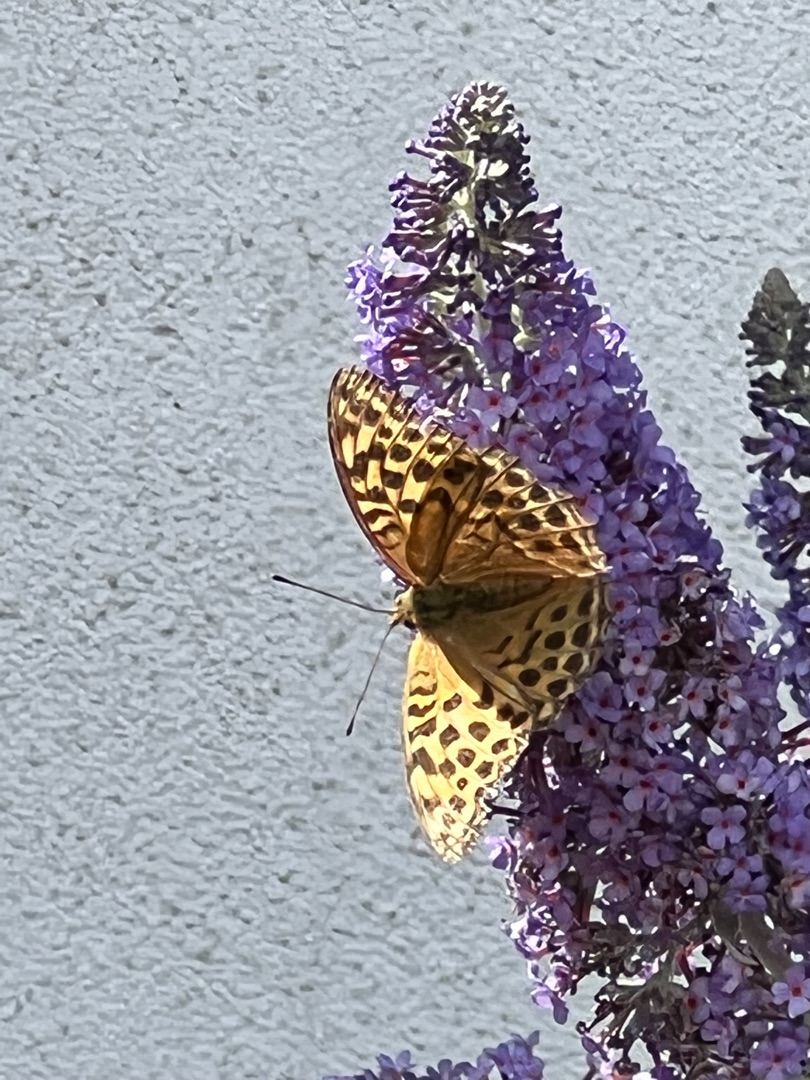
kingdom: Animalia
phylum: Arthropoda
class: Insecta
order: Lepidoptera
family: Nymphalidae
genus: Argynnis
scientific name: Argynnis paphia
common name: Kejserkåbe
